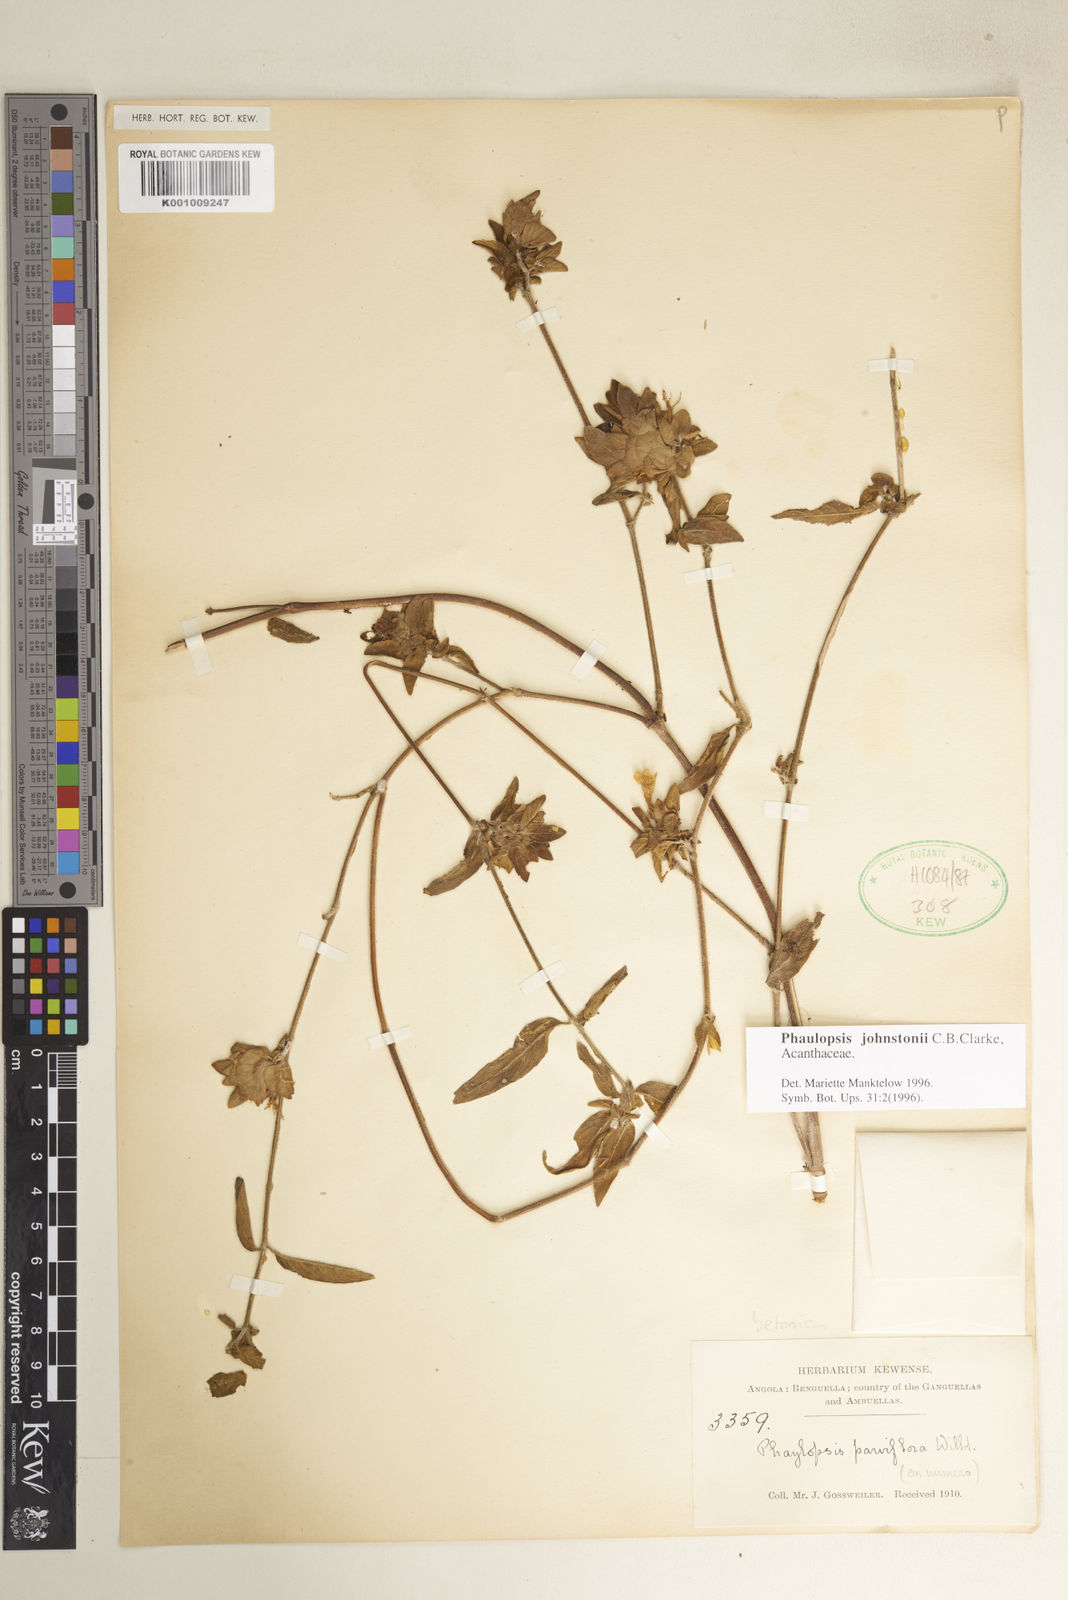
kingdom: Plantae
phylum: Tracheophyta
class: Magnoliopsida
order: Lamiales
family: Acanthaceae
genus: Phaulopsis
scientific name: Phaulopsis johnstonii
